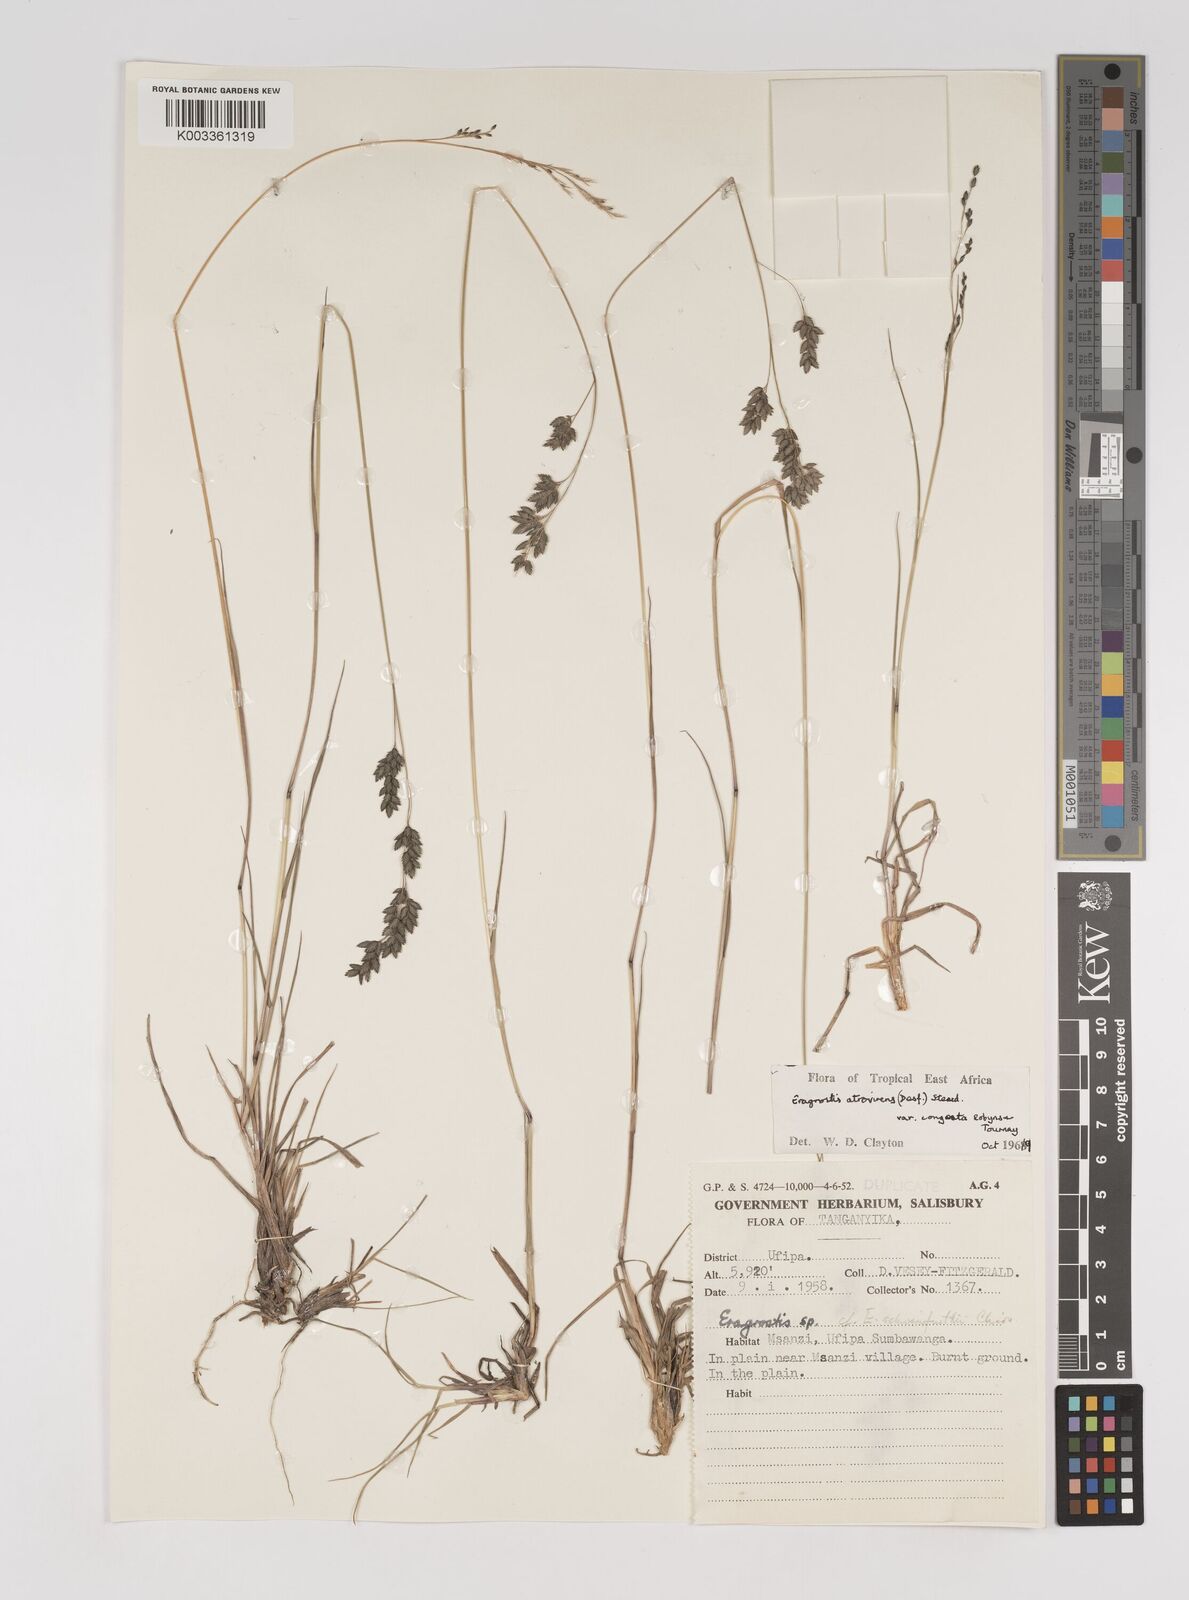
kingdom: Plantae
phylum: Tracheophyta
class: Liliopsida
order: Poales
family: Poaceae
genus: Eragrostis
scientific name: Eragrostis botryodes
